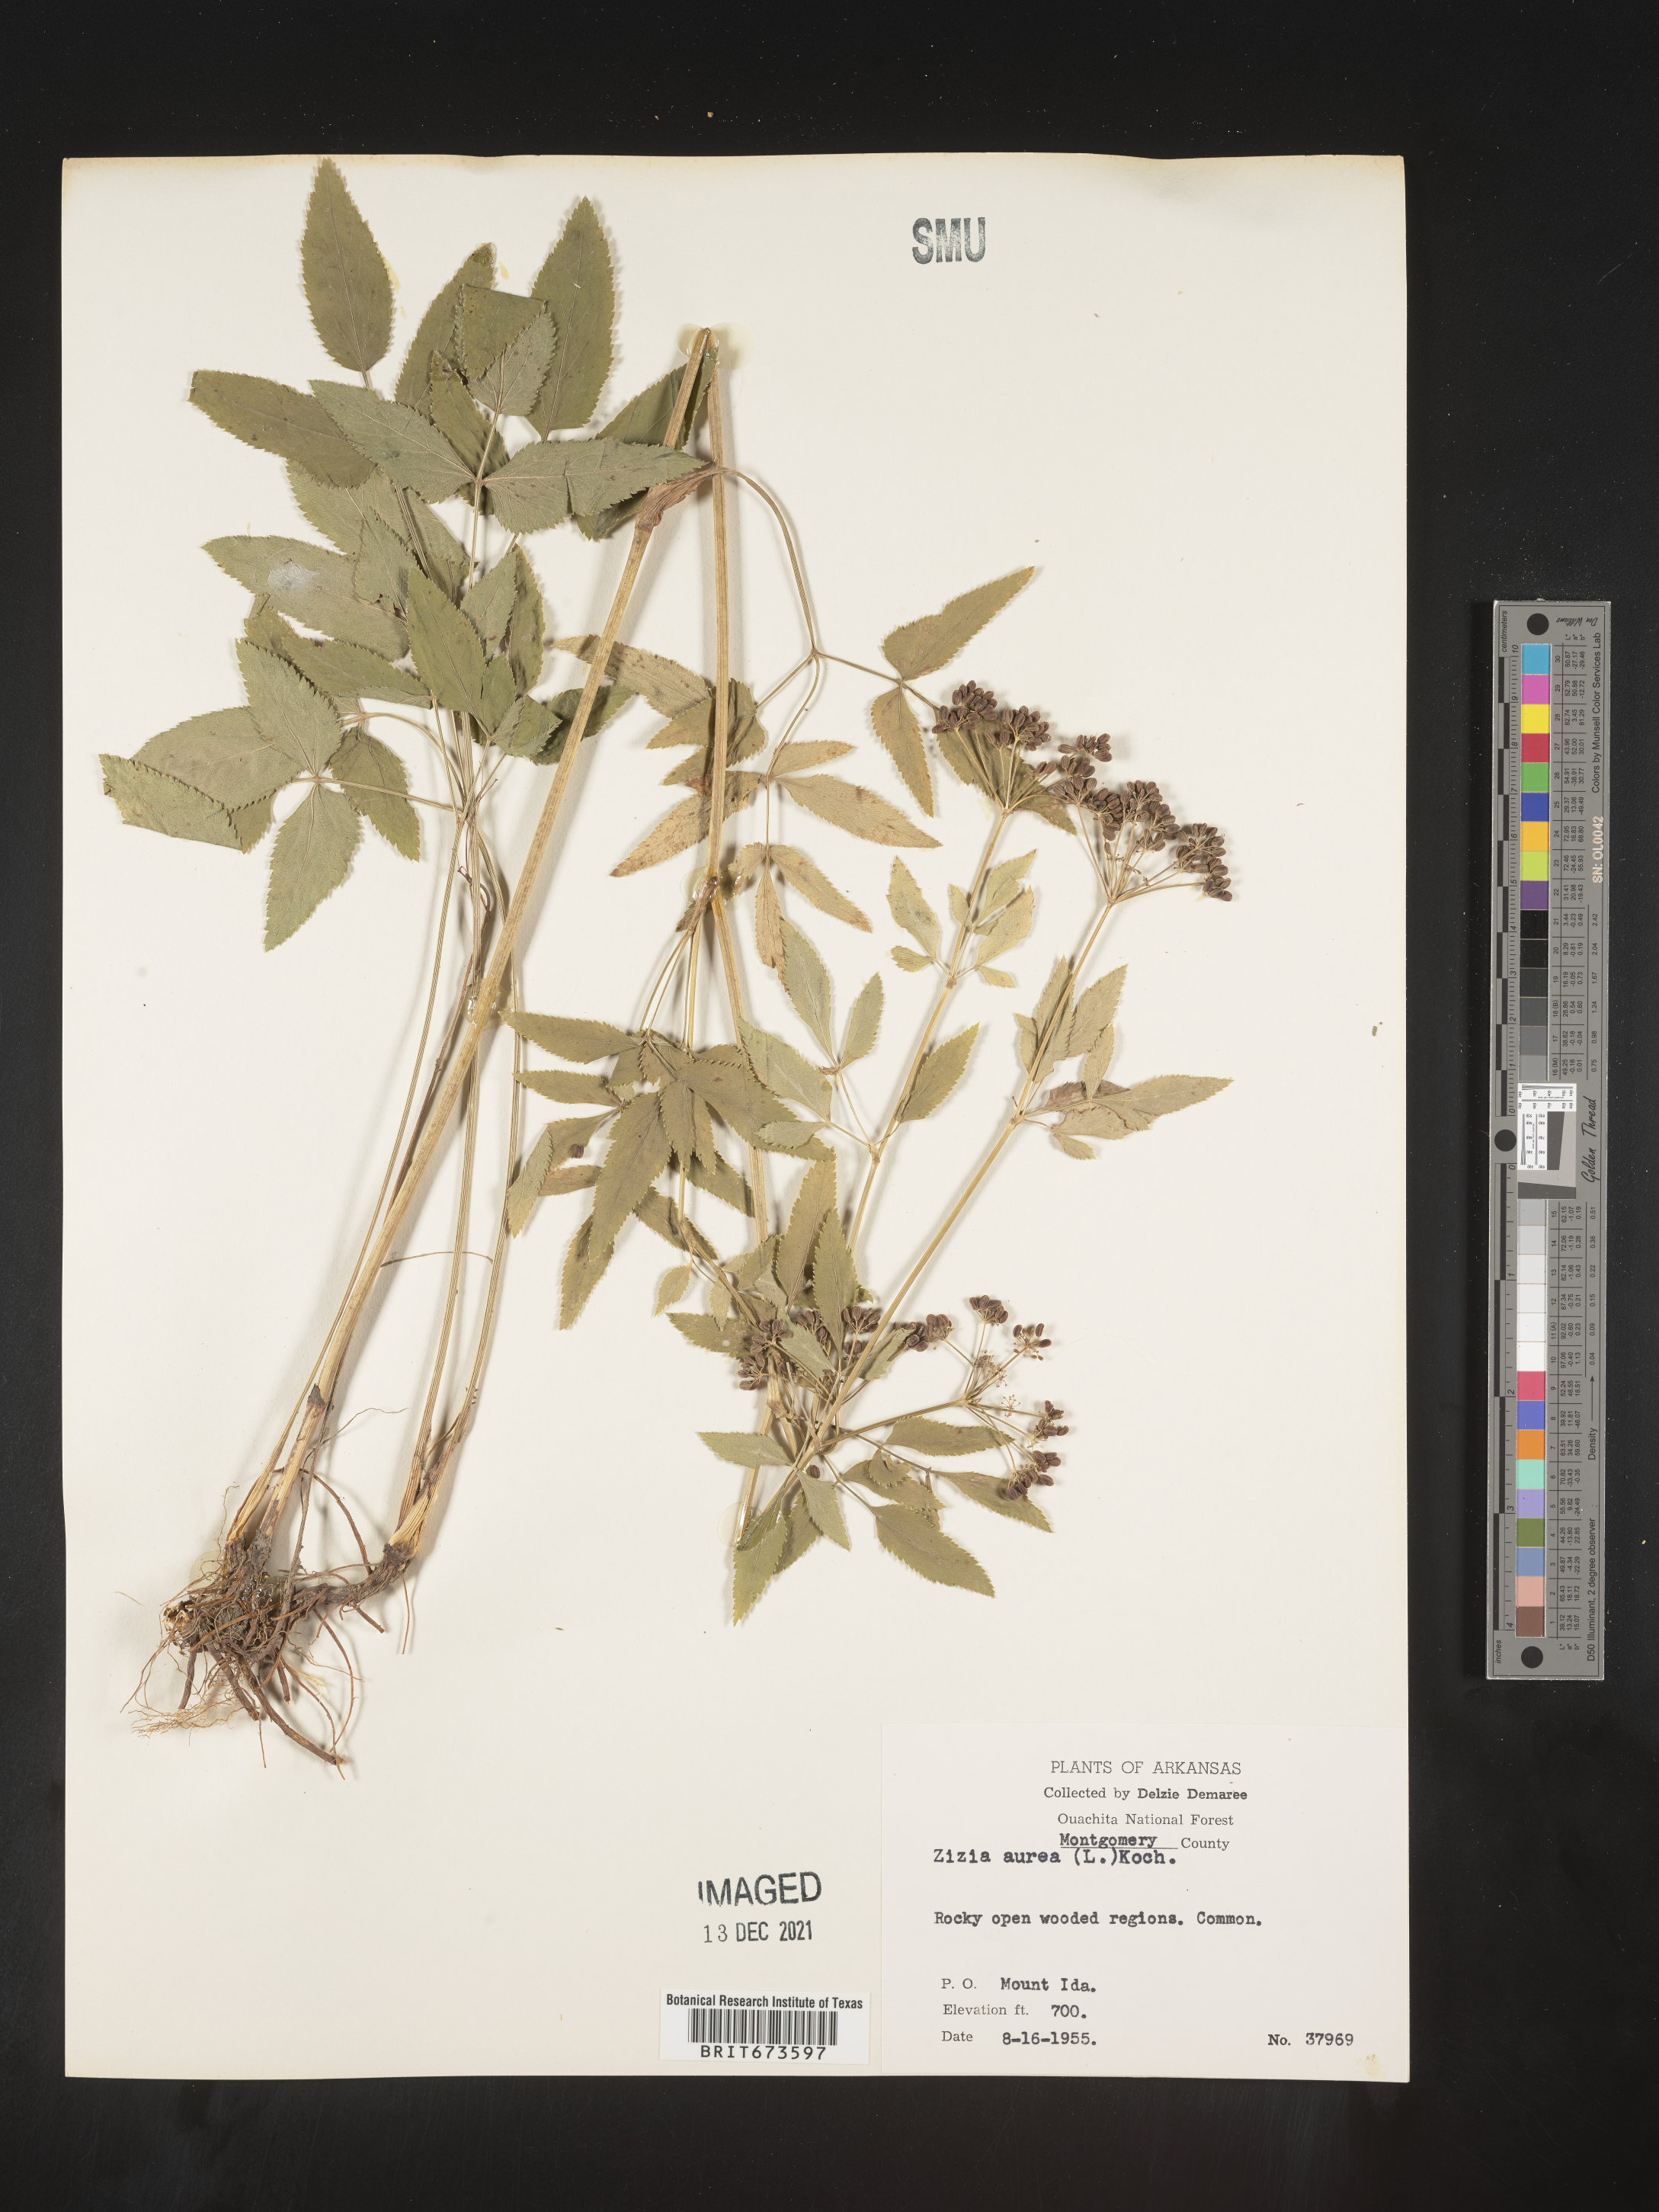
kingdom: Plantae
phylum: Tracheophyta
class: Magnoliopsida
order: Apiales
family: Apiaceae
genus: Zizia
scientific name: Zizia aurea
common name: Golden alexanders
